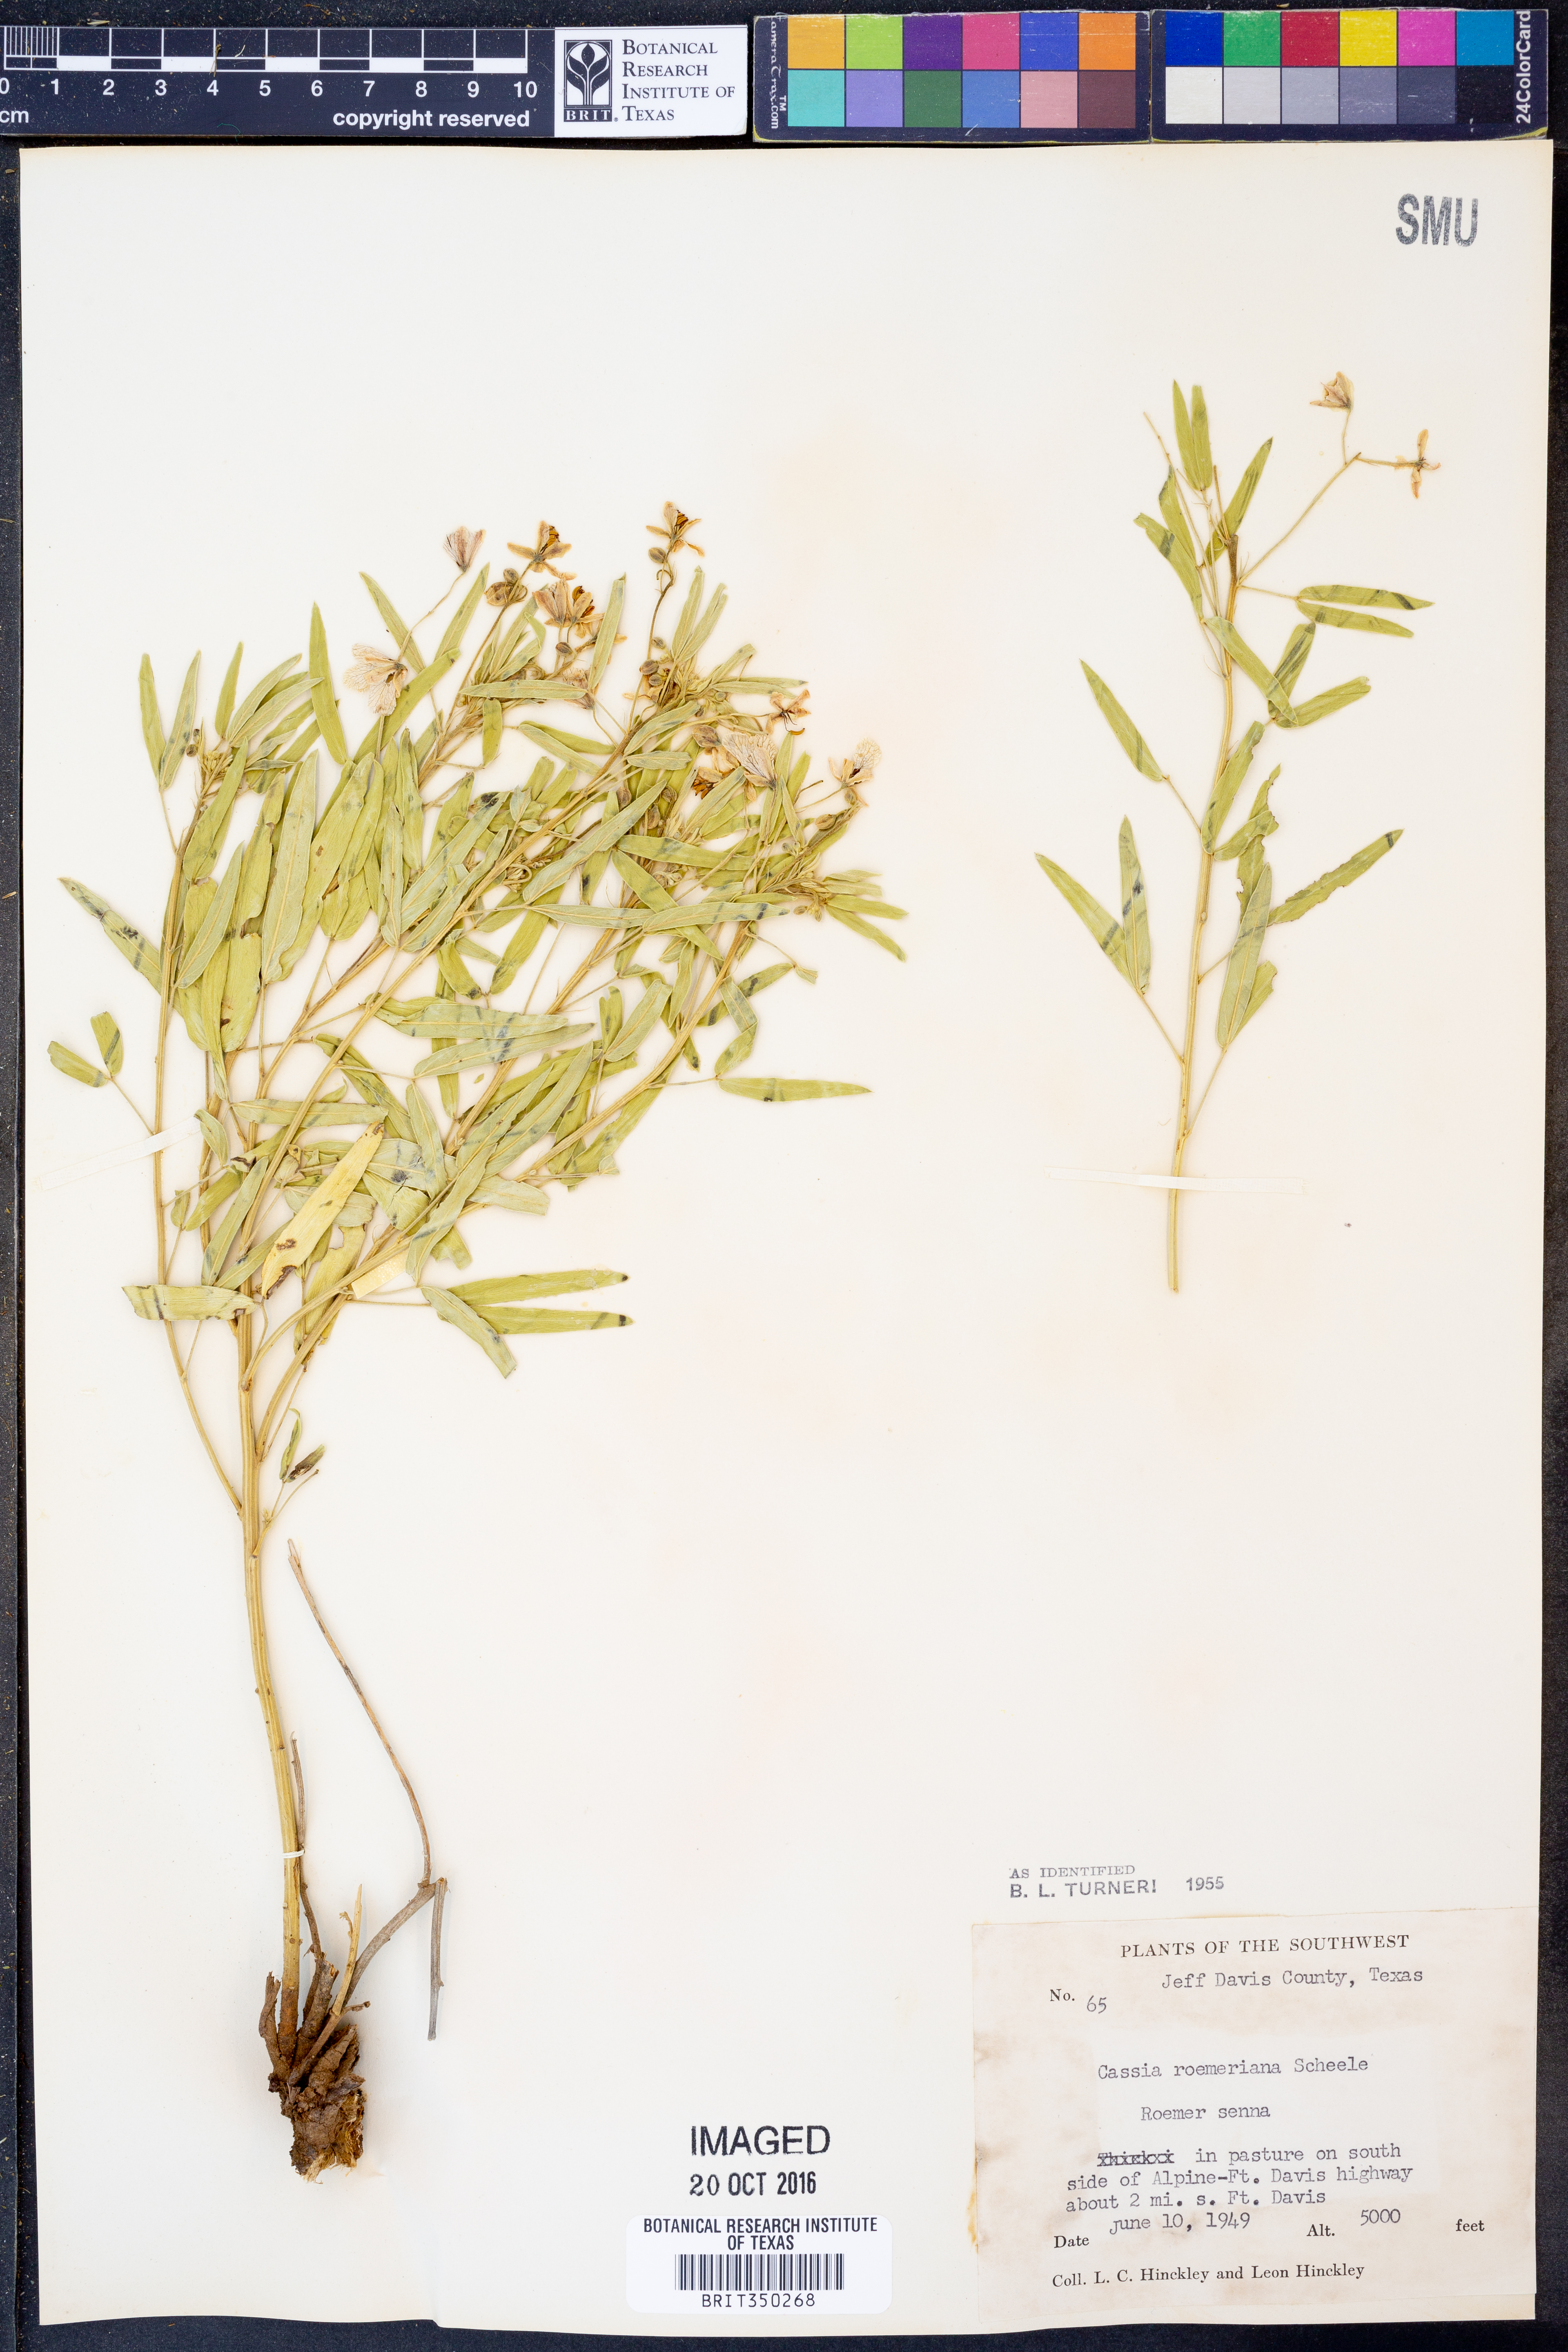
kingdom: Plantae
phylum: Tracheophyta
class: Magnoliopsida
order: Fabales
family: Fabaceae
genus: Senna
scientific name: Senna roemeriana
